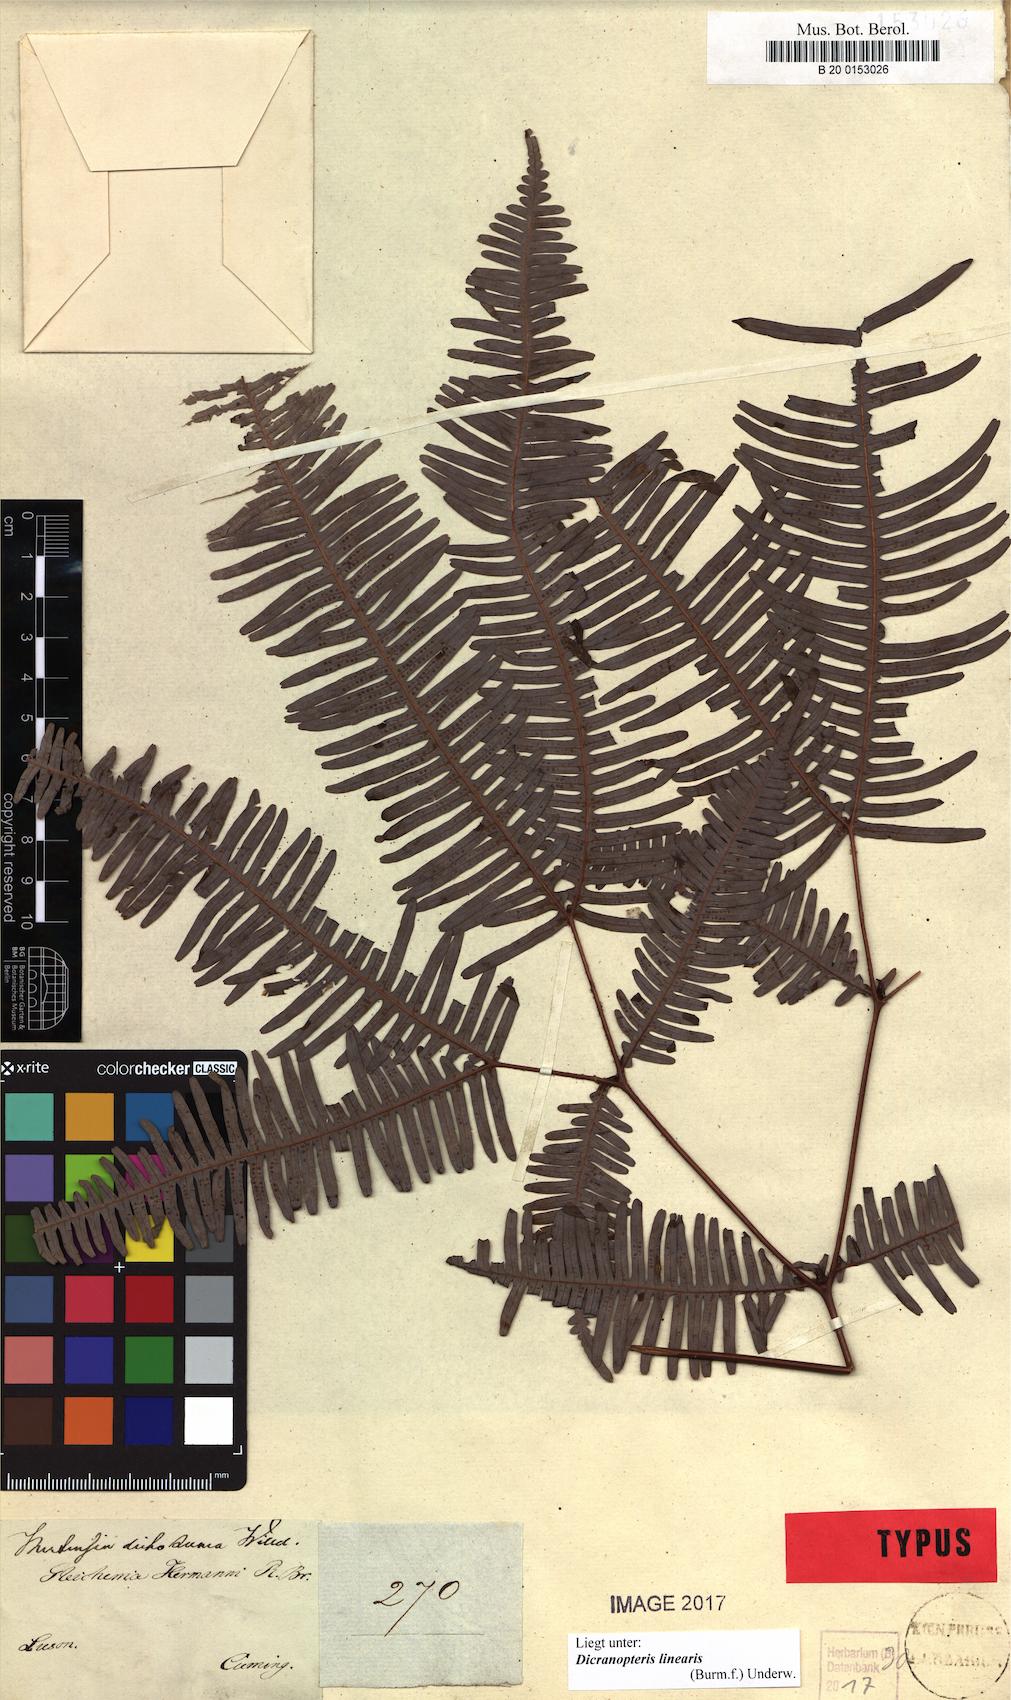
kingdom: Plantae
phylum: Tracheophyta
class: Polypodiopsida
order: Gleicheniales
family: Gleicheniaceae
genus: Dicranopteris
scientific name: Dicranopteris linearis
